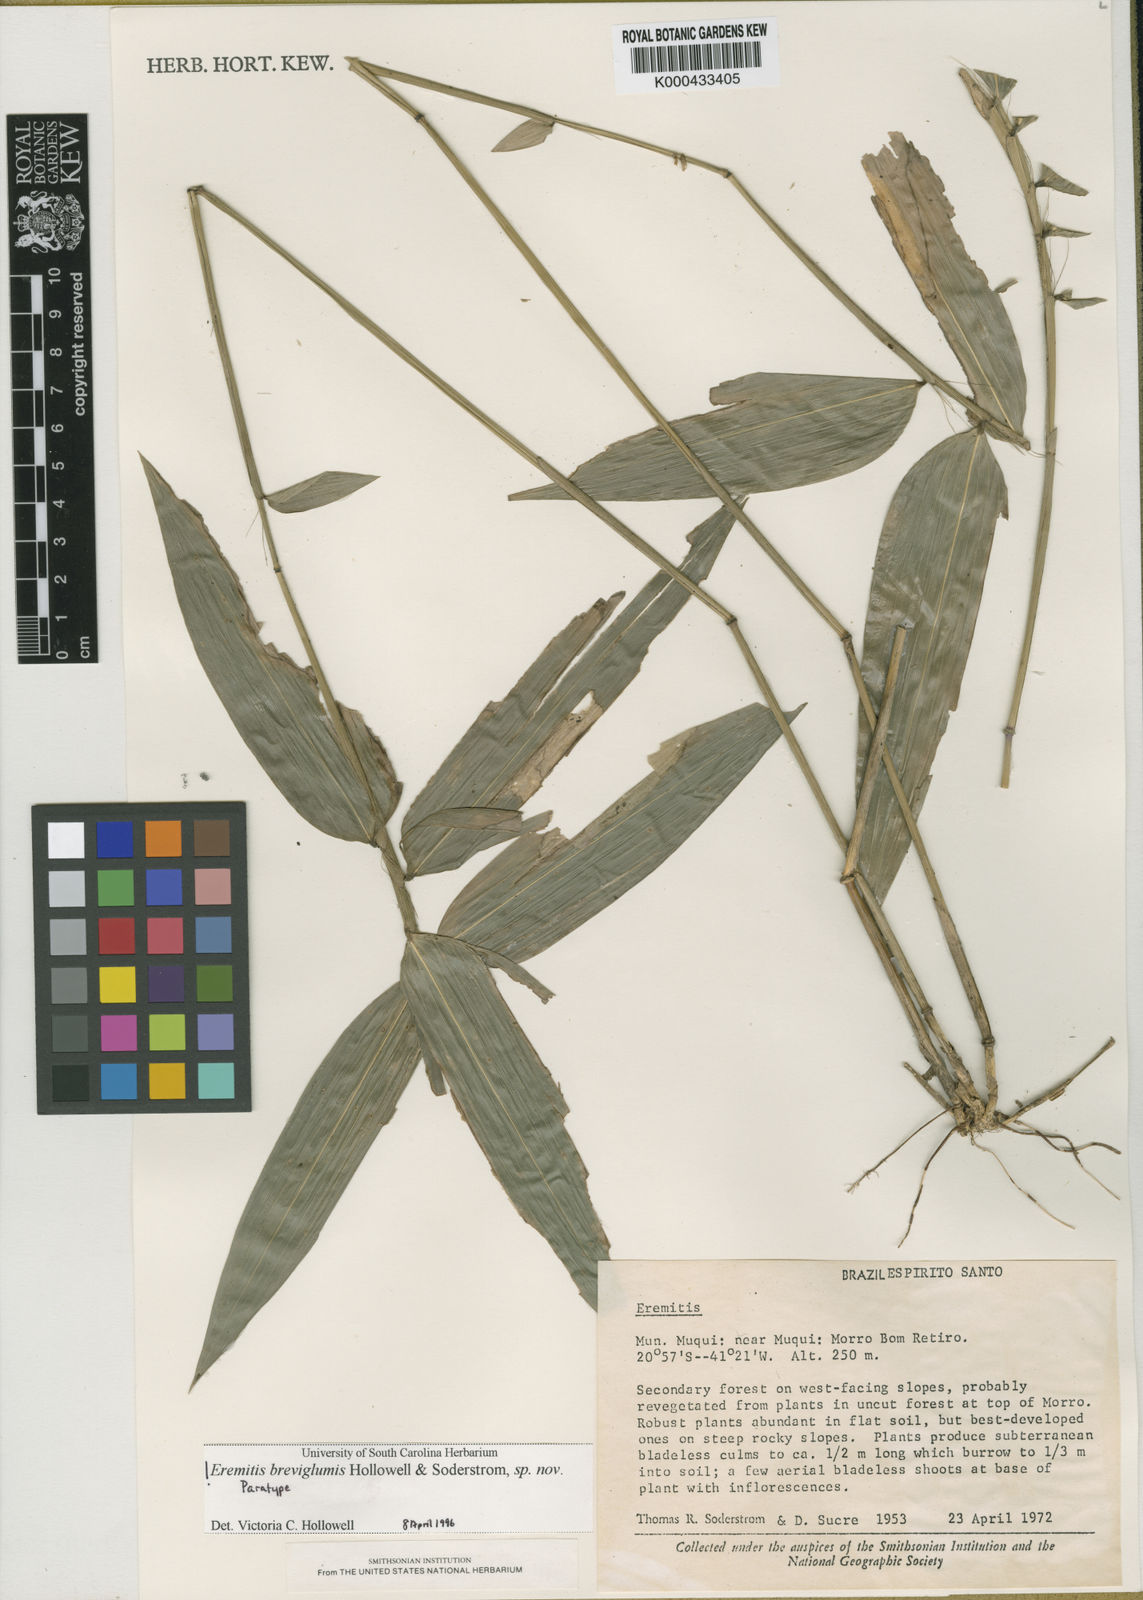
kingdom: Plantae
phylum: Tracheophyta
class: Liliopsida
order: Poales
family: Poaceae
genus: Eremitis
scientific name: Eremitis
